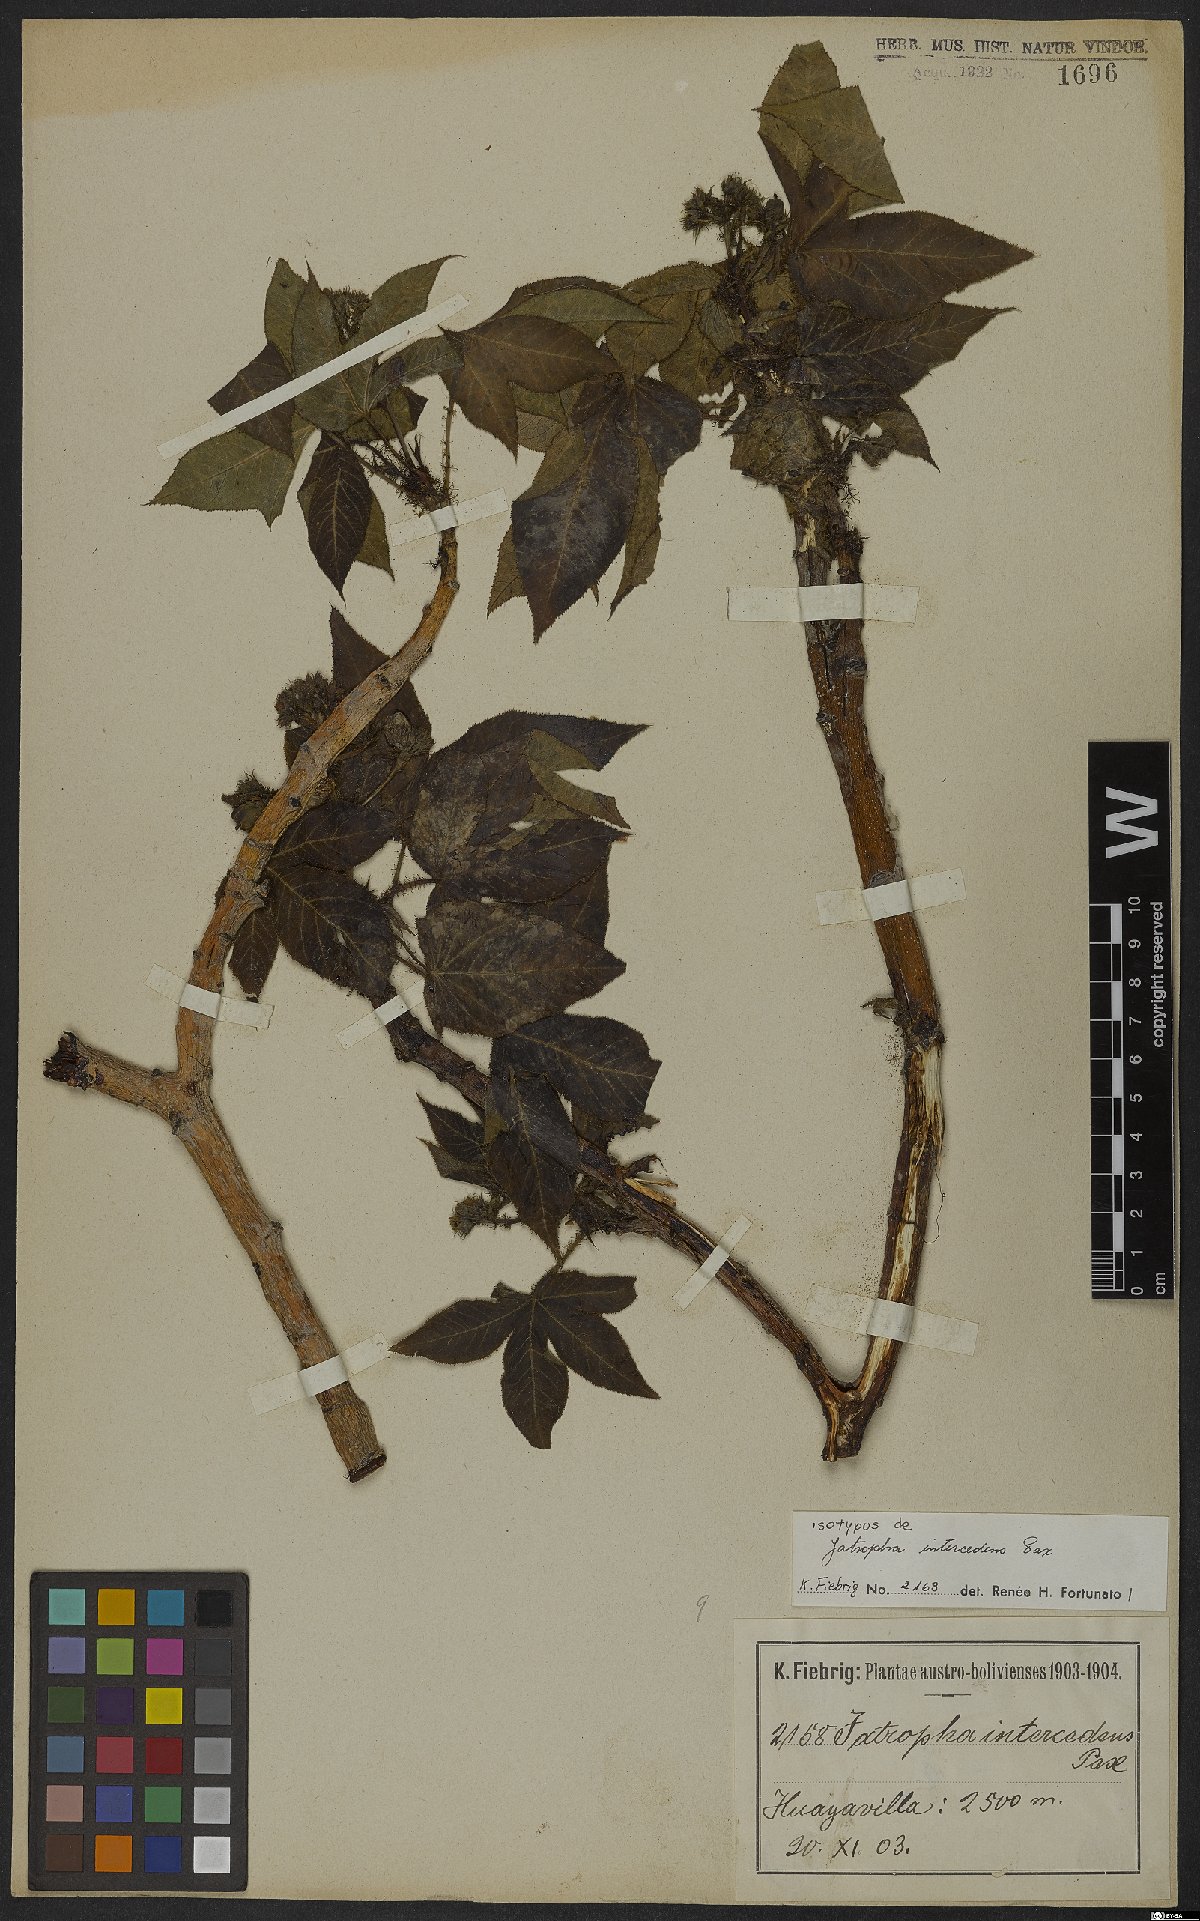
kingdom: Plantae
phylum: Tracheophyta
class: Magnoliopsida
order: Malpighiales
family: Euphorbiaceae
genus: Jatropha
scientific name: Jatropha excisa
